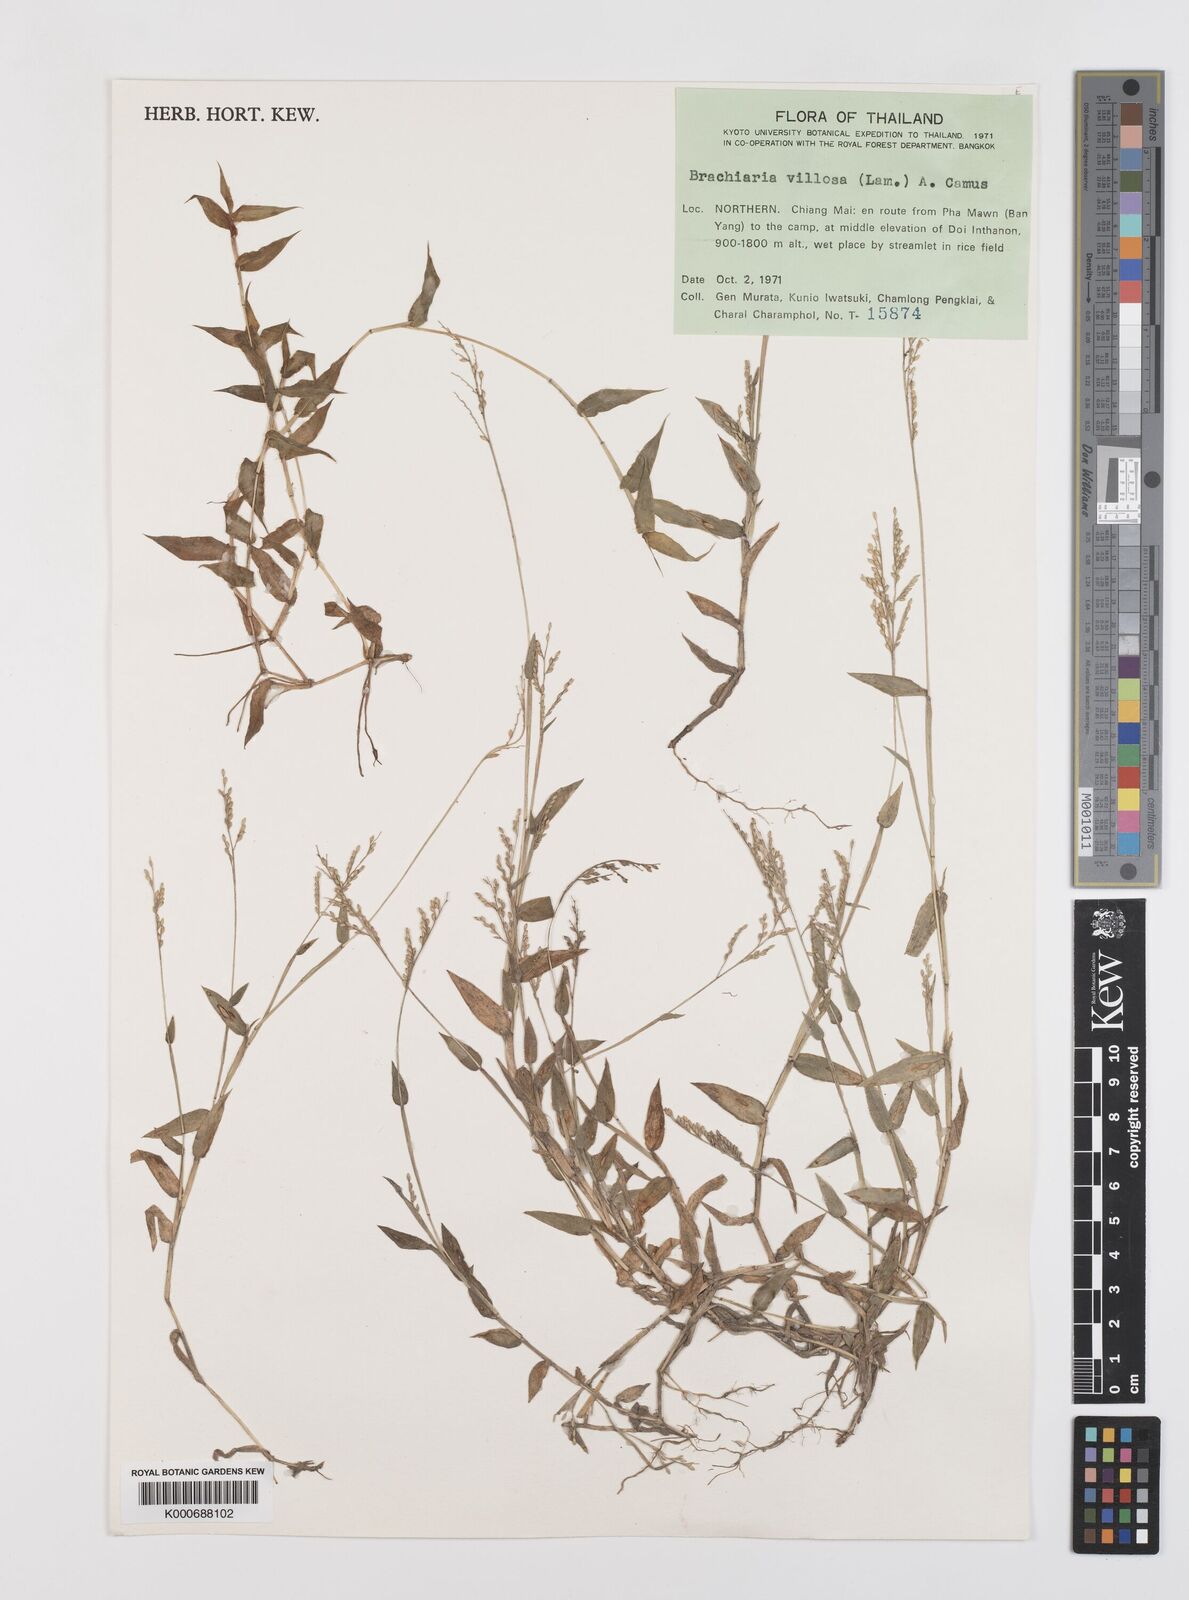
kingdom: Plantae
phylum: Tracheophyta
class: Liliopsida
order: Poales
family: Poaceae
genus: Urochloa
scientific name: Urochloa villosa
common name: Hairy signalgrass
